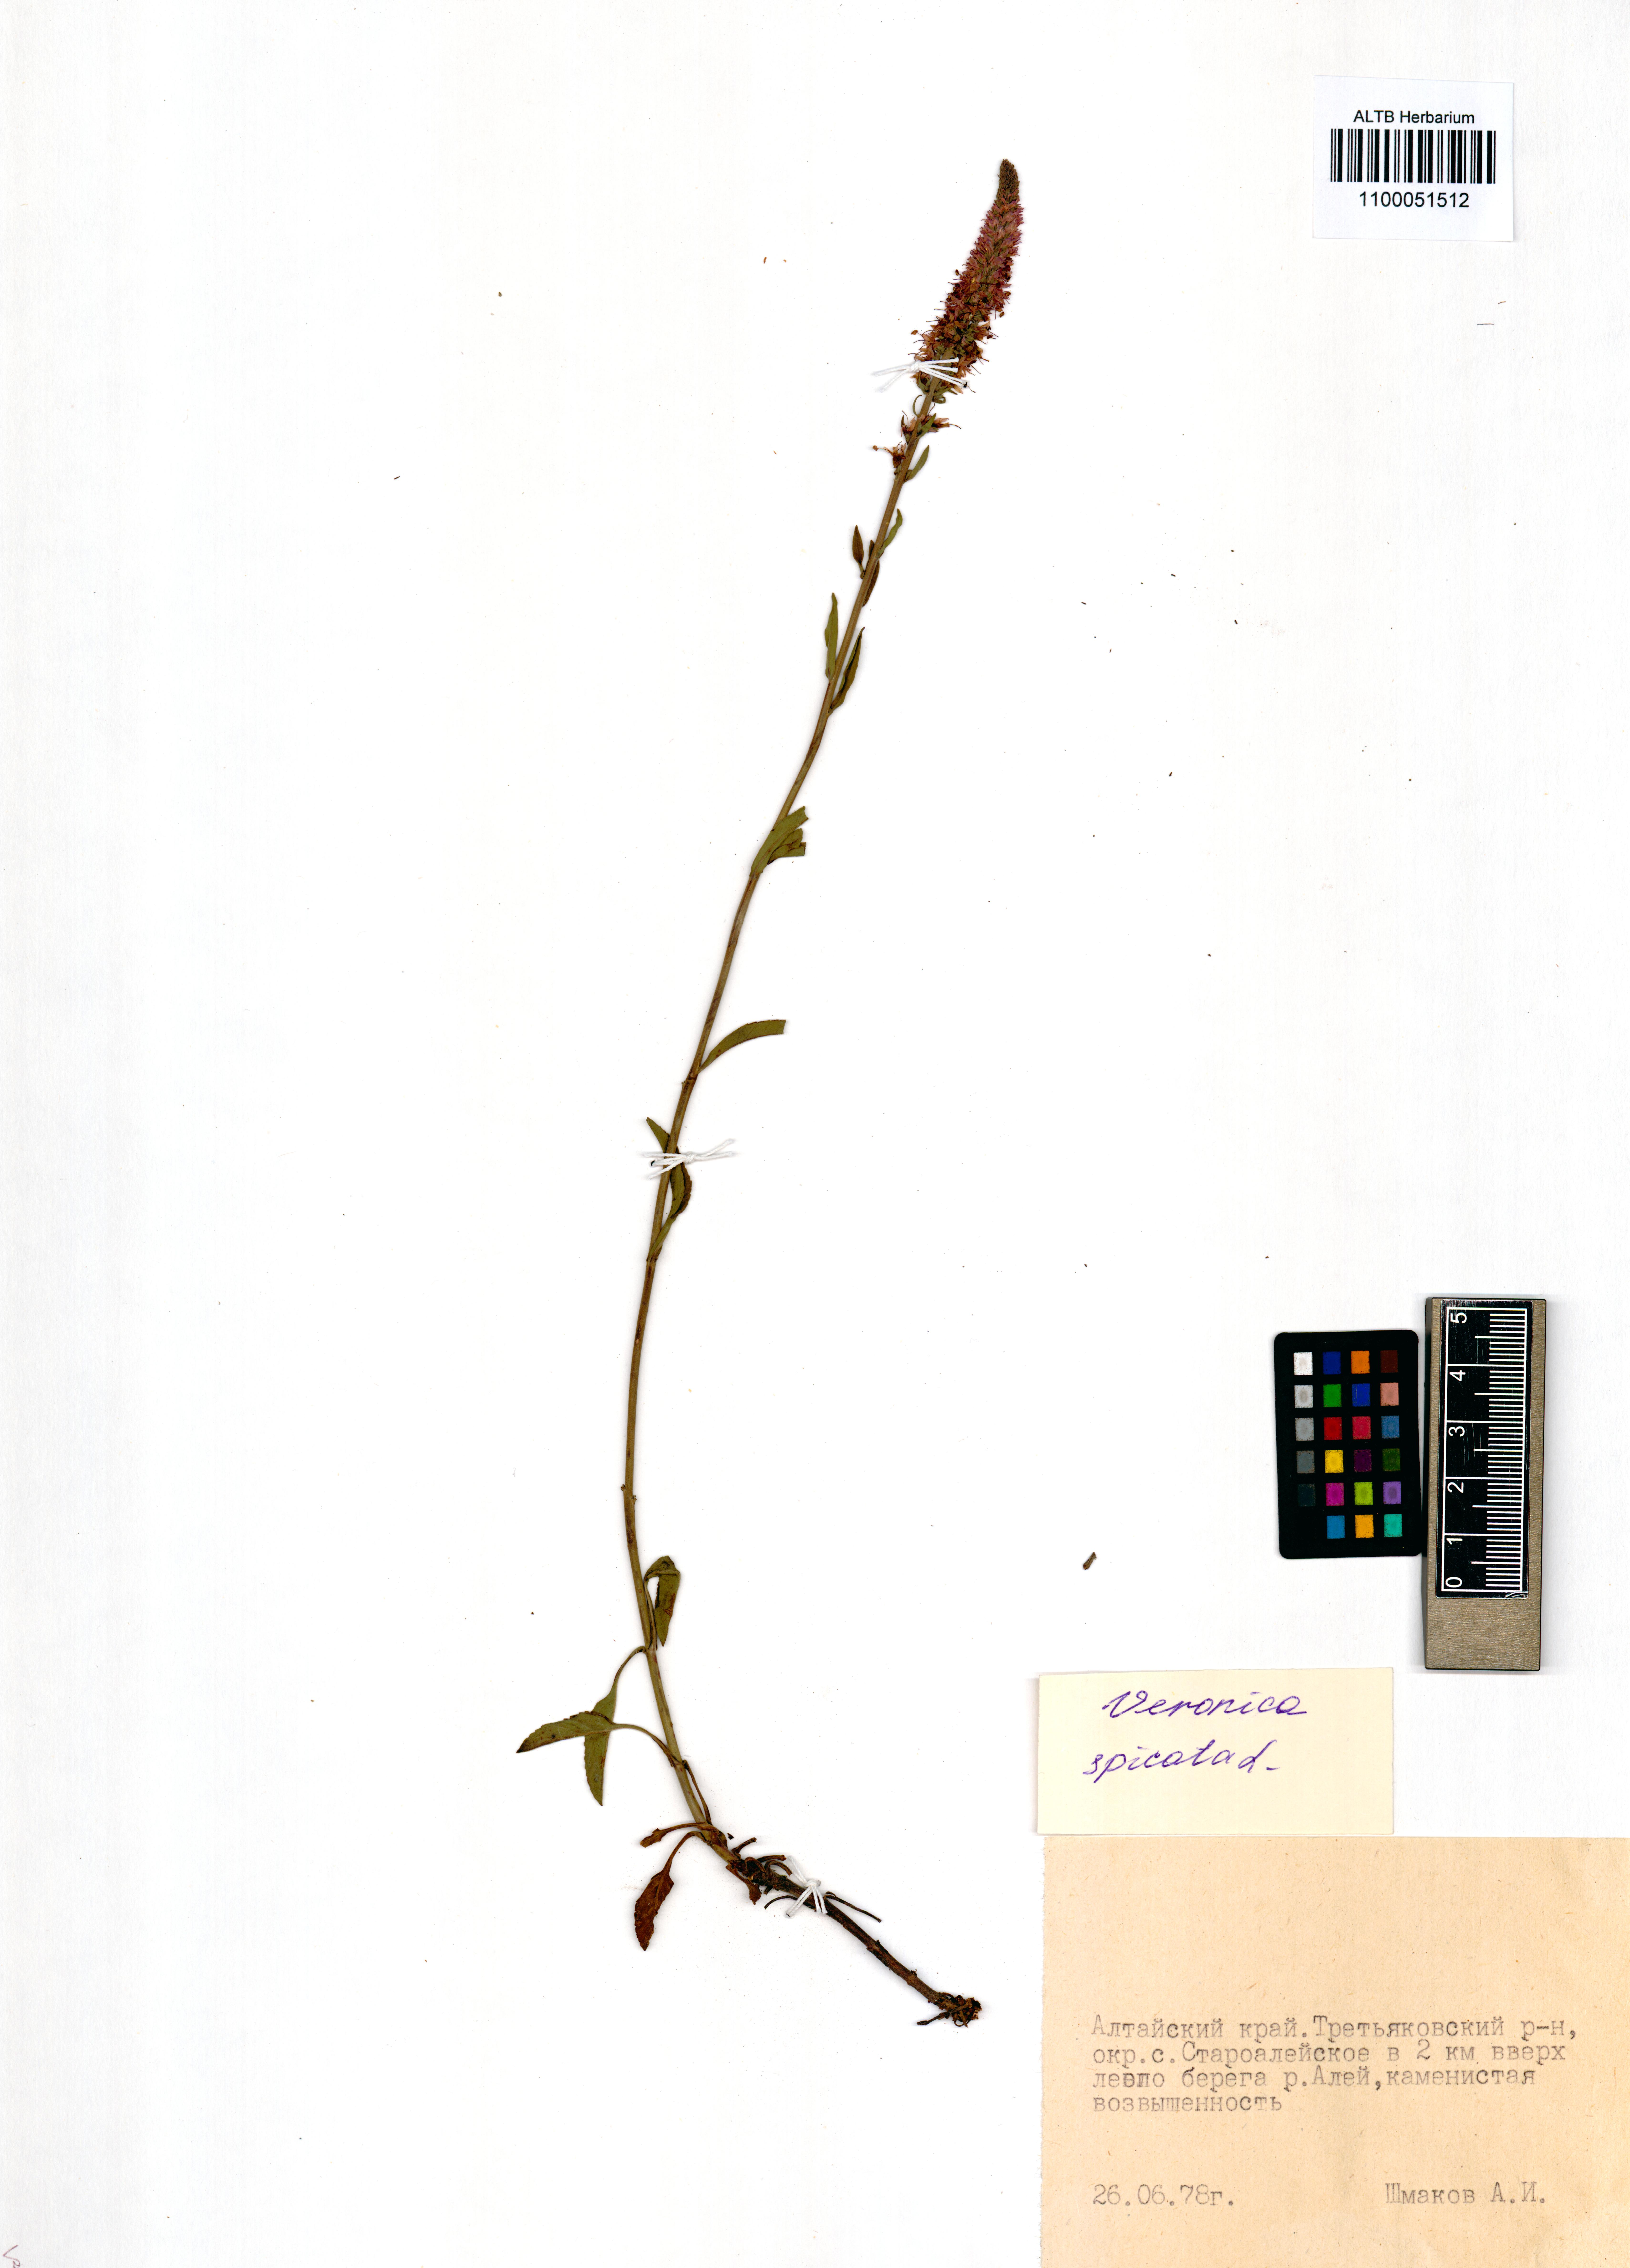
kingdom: Plantae
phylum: Tracheophyta
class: Magnoliopsida
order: Lamiales
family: Plantaginaceae
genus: Veronica
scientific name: Veronica spicata
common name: Spiked speedwell
